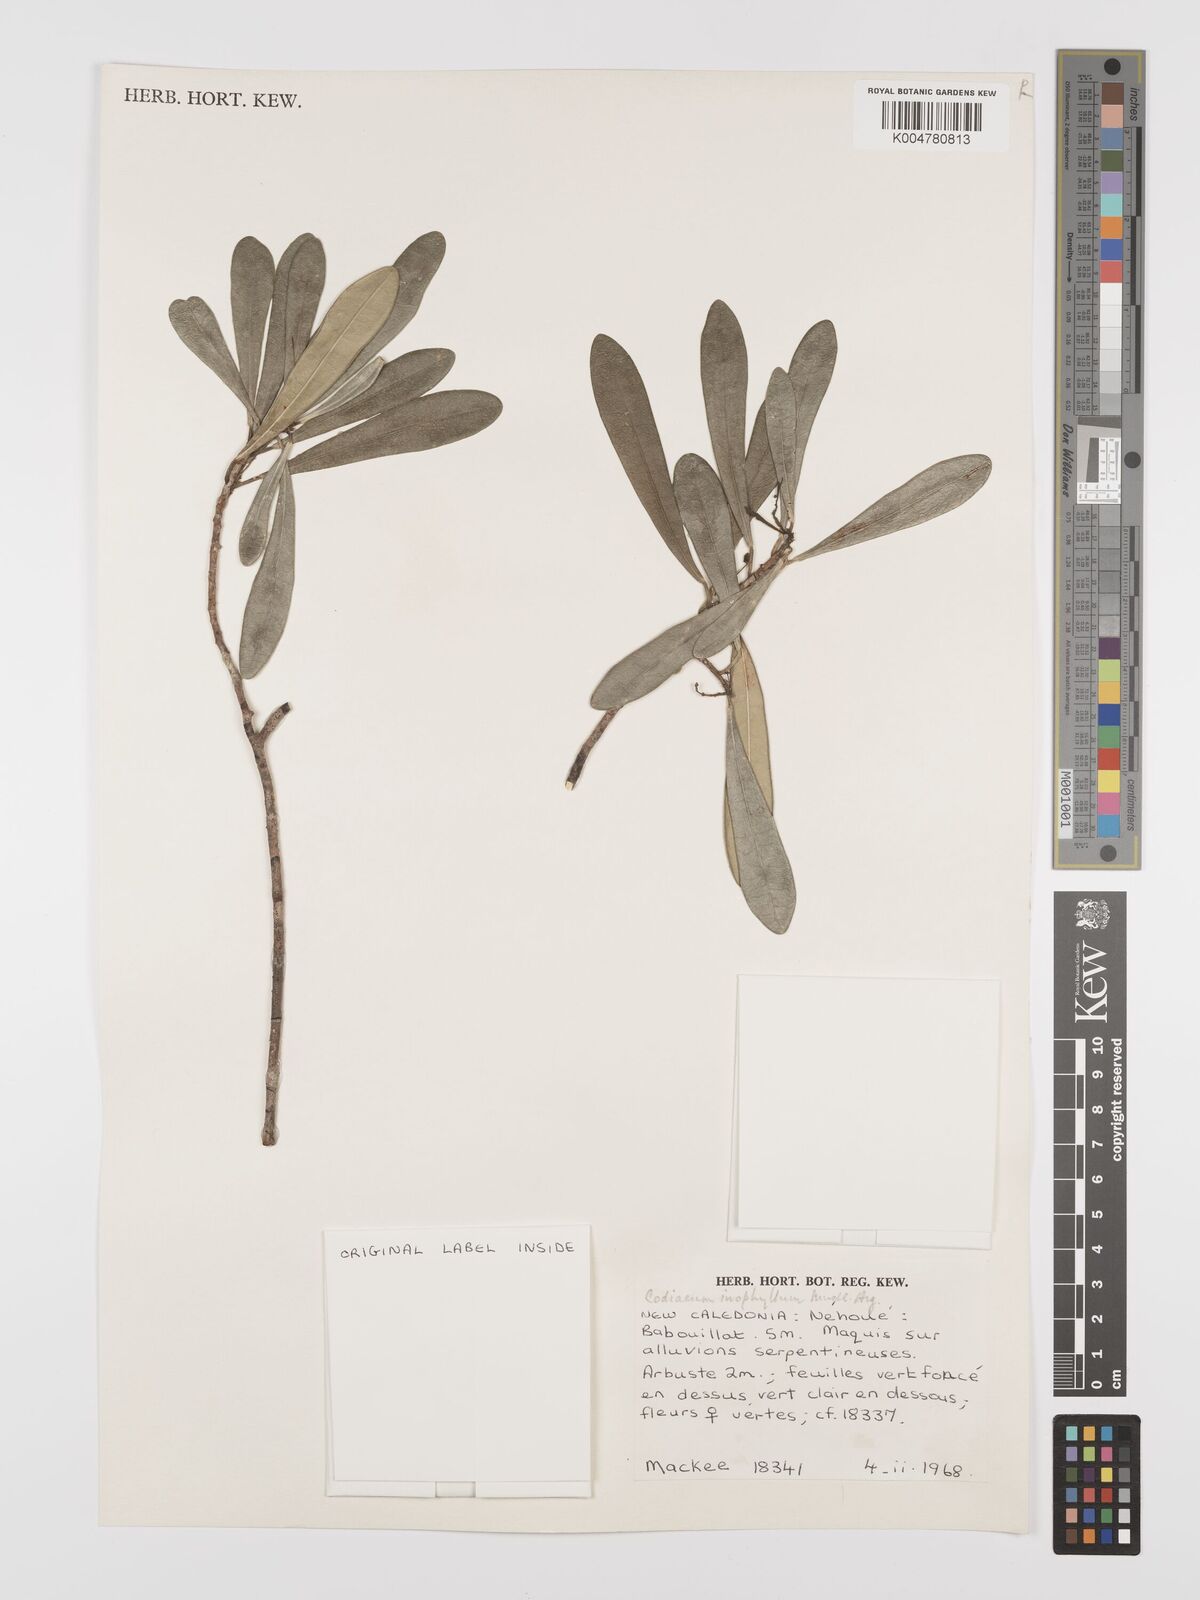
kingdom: Plantae
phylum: Tracheophyta
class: Magnoliopsida
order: Malpighiales
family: Euphorbiaceae
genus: Codiaeum
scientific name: Codiaeum
